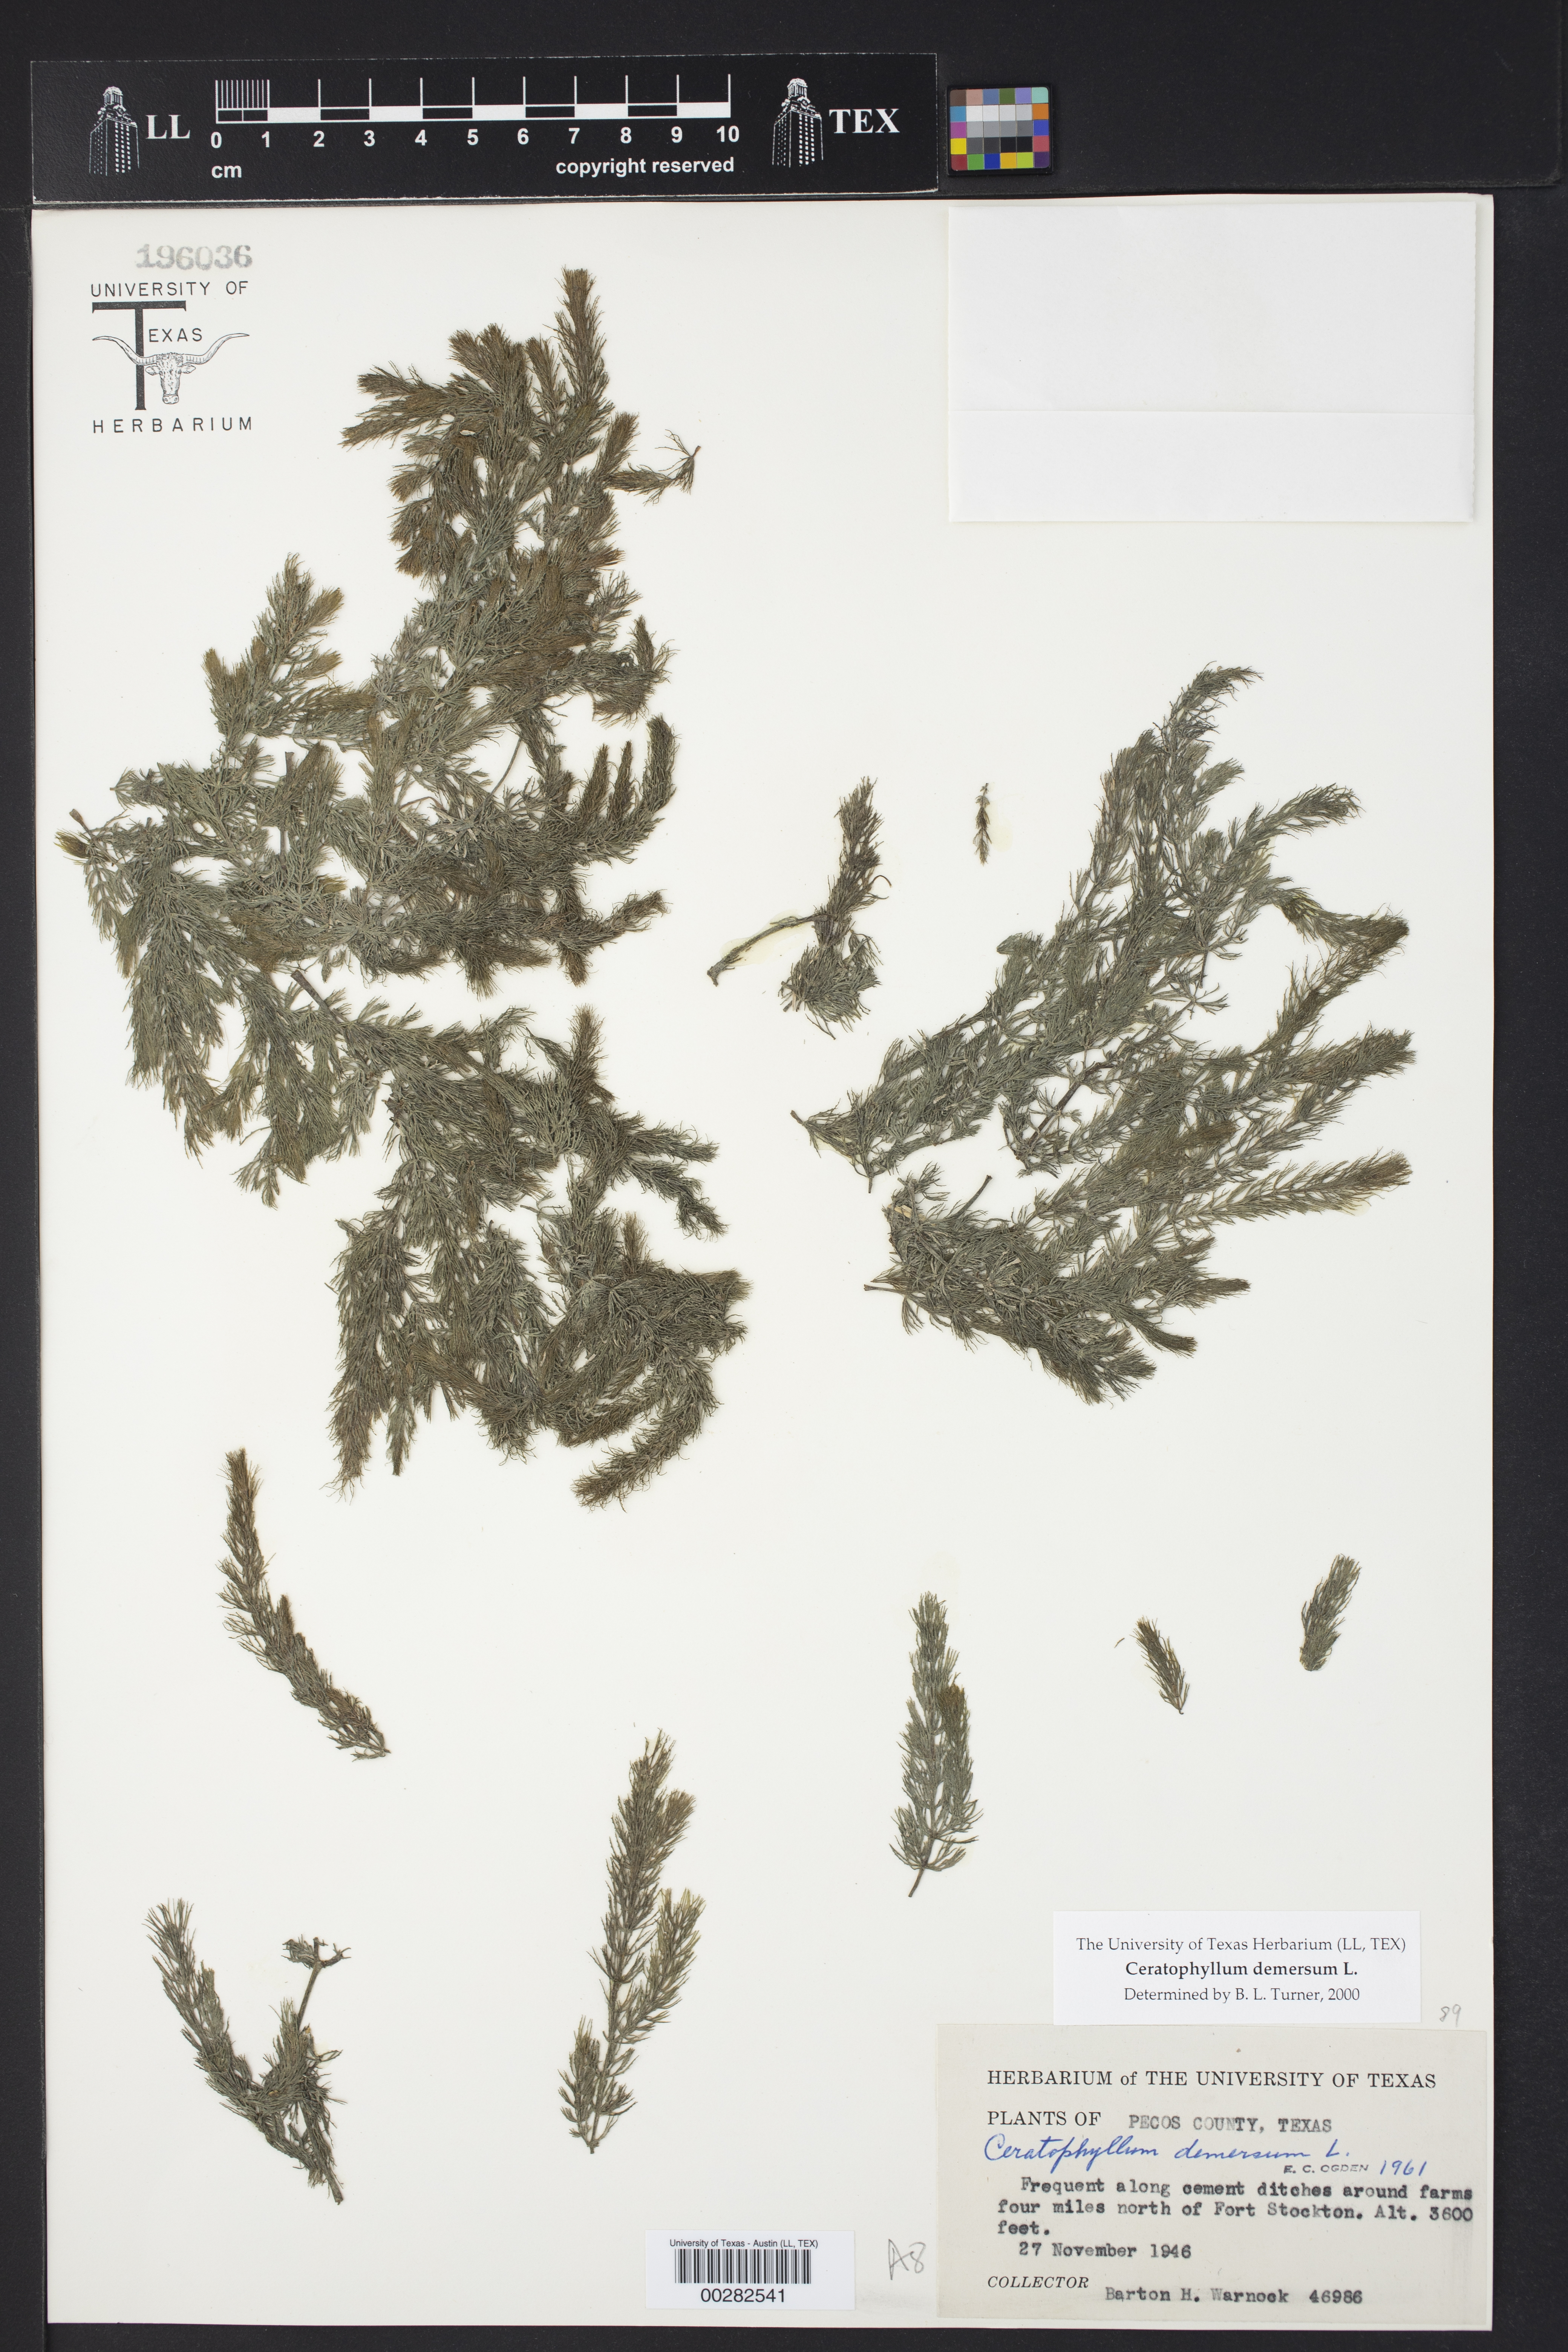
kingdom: Plantae
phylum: Tracheophyta
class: Magnoliopsida
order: Ceratophyllales
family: Ceratophyllaceae
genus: Ceratophyllum
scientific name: Ceratophyllum demersum
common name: Rigid hornwort
